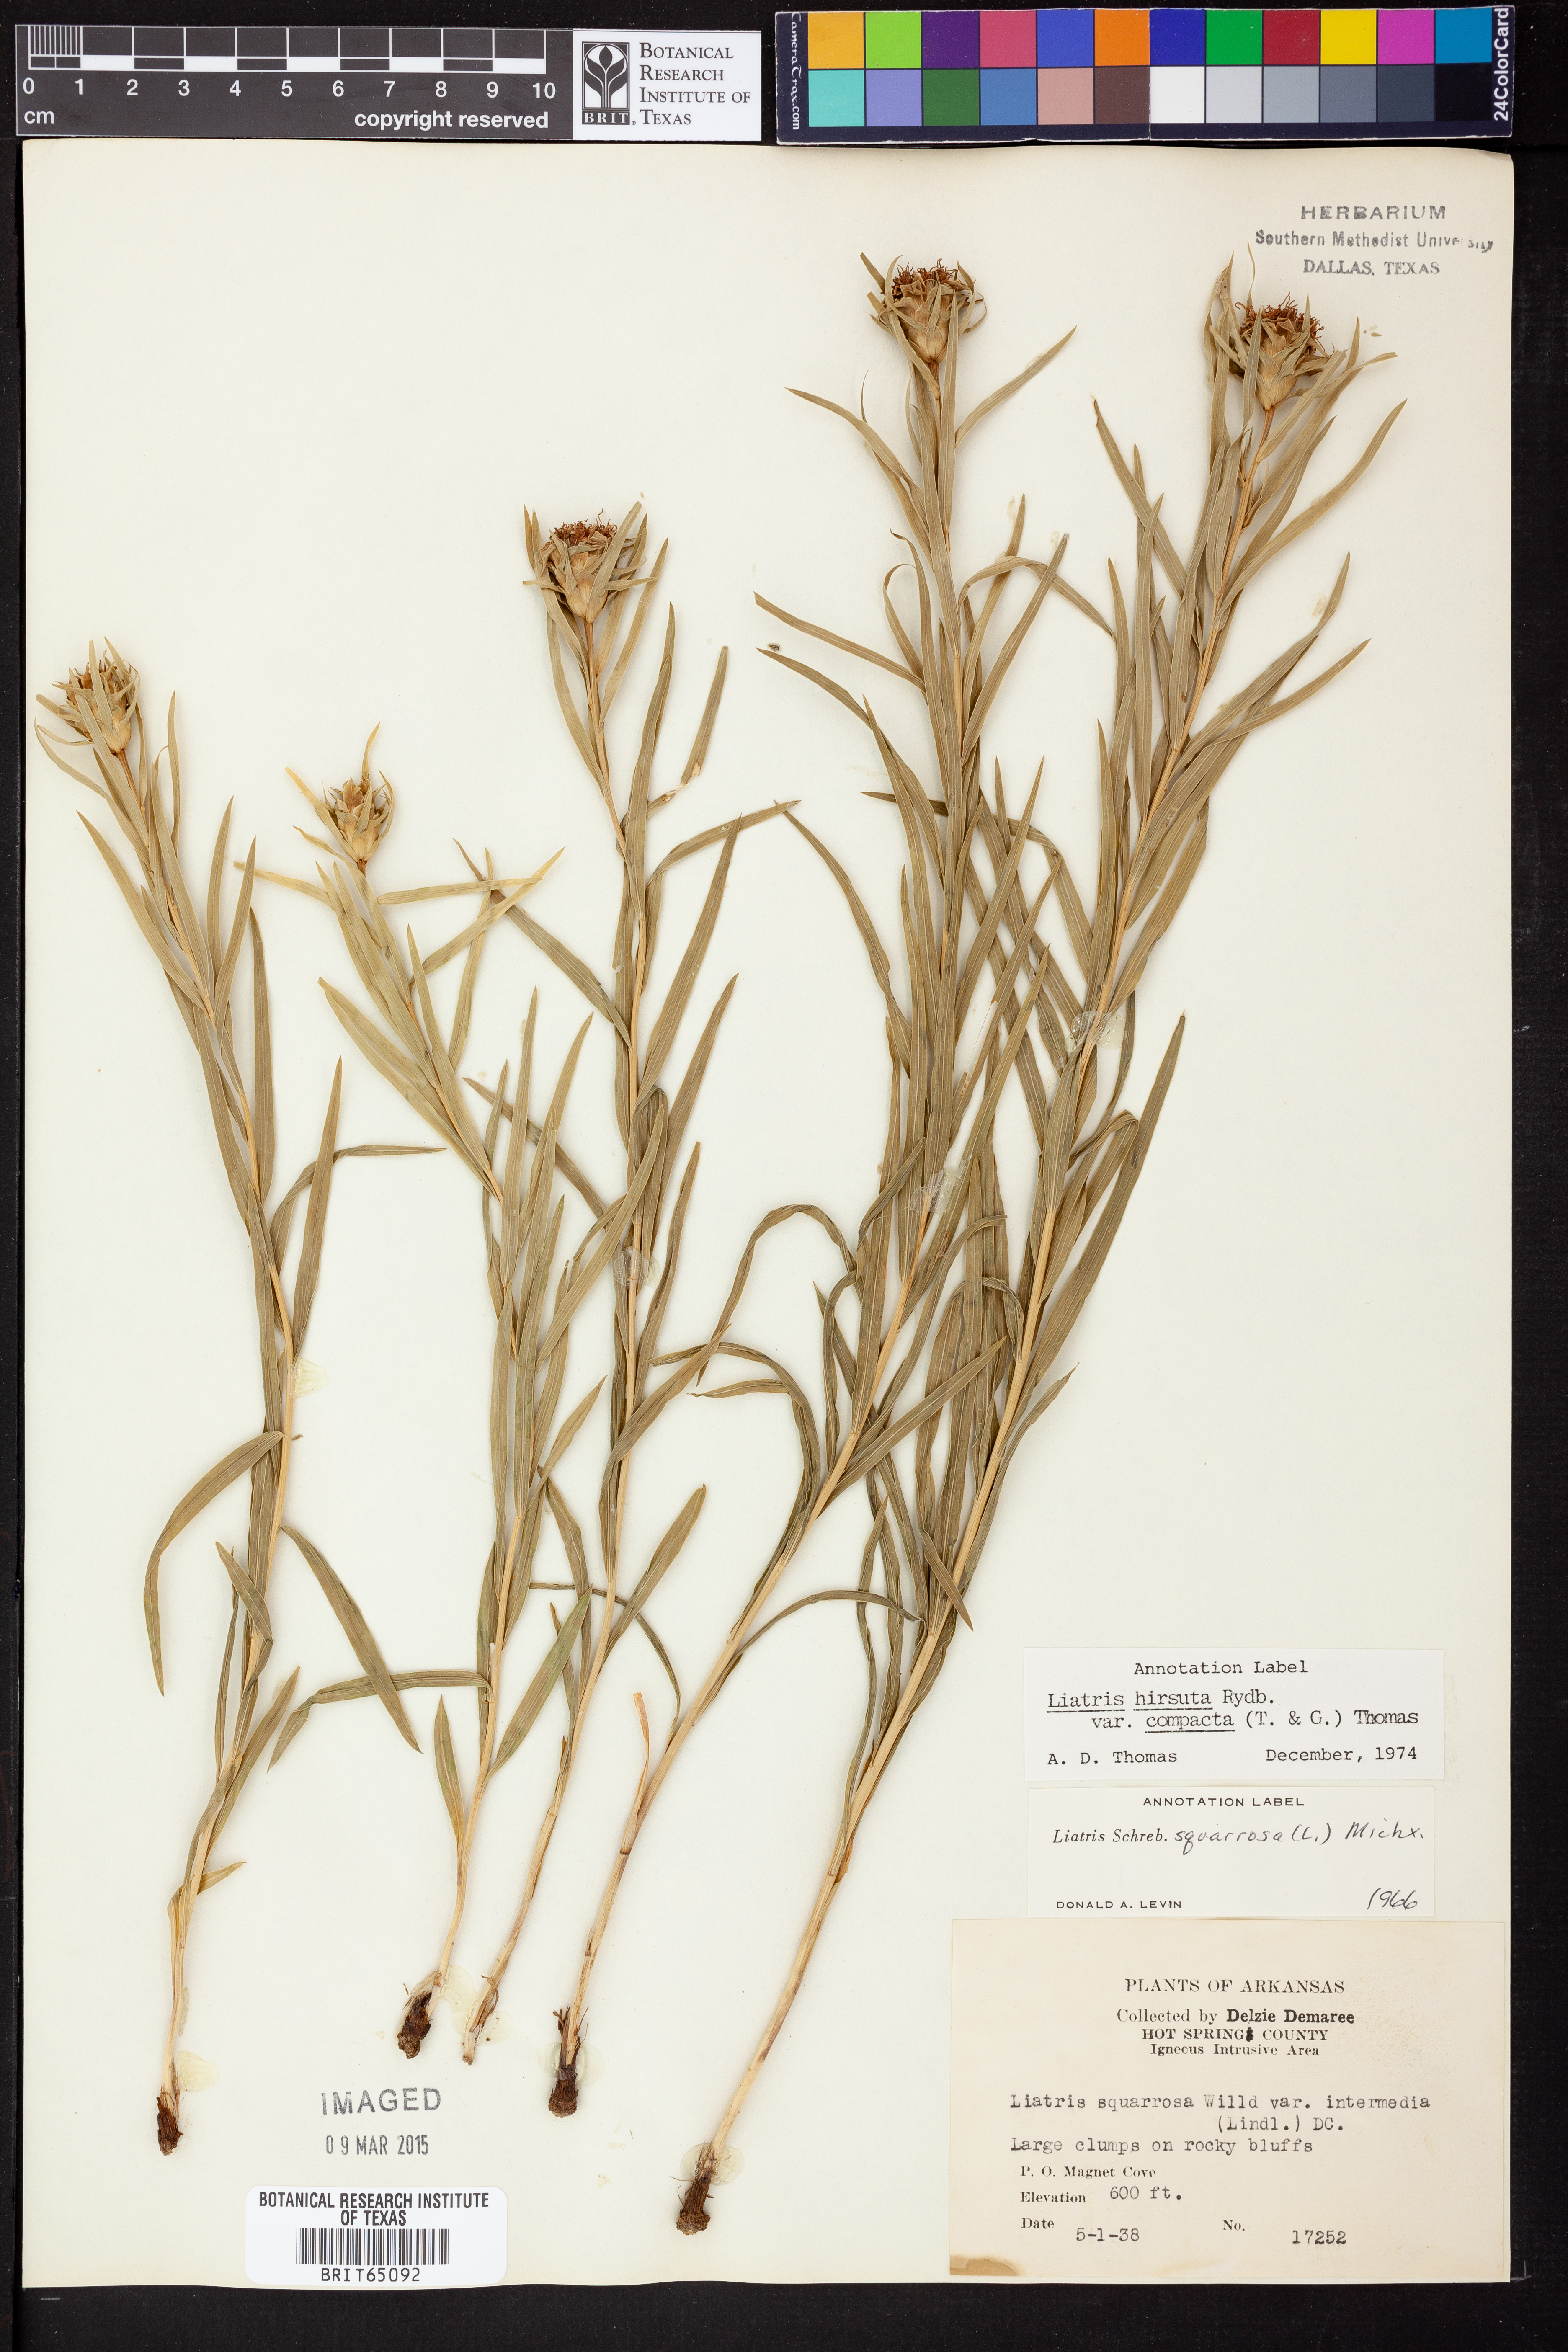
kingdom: Plantae
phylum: Tracheophyta
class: Magnoliopsida
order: Asterales
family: Asteraceae
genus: Liatris
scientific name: Liatris compacta
